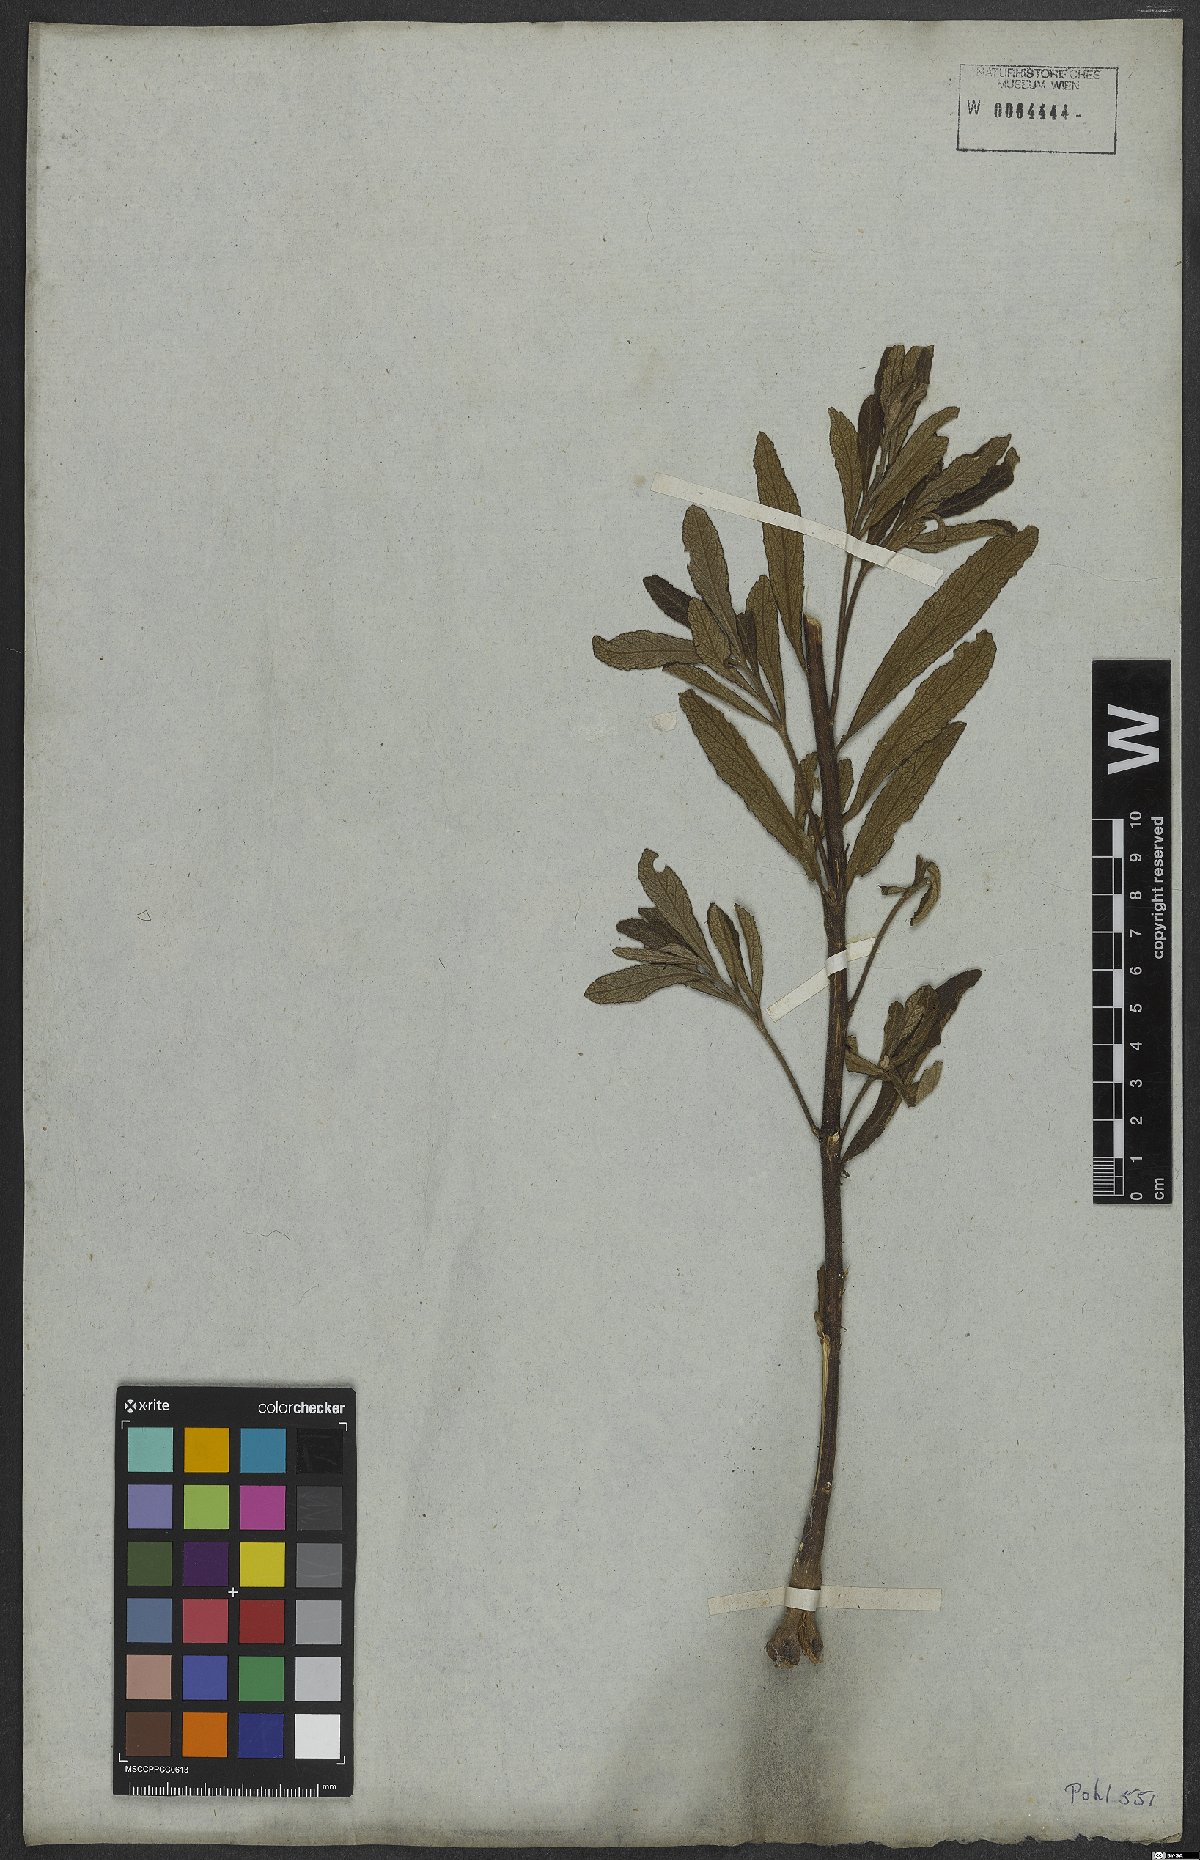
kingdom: Plantae
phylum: Tracheophyta
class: Magnoliopsida
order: Asterales
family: Asteraceae
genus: Vernonanthura
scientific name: Vernonanthura ignobilis
